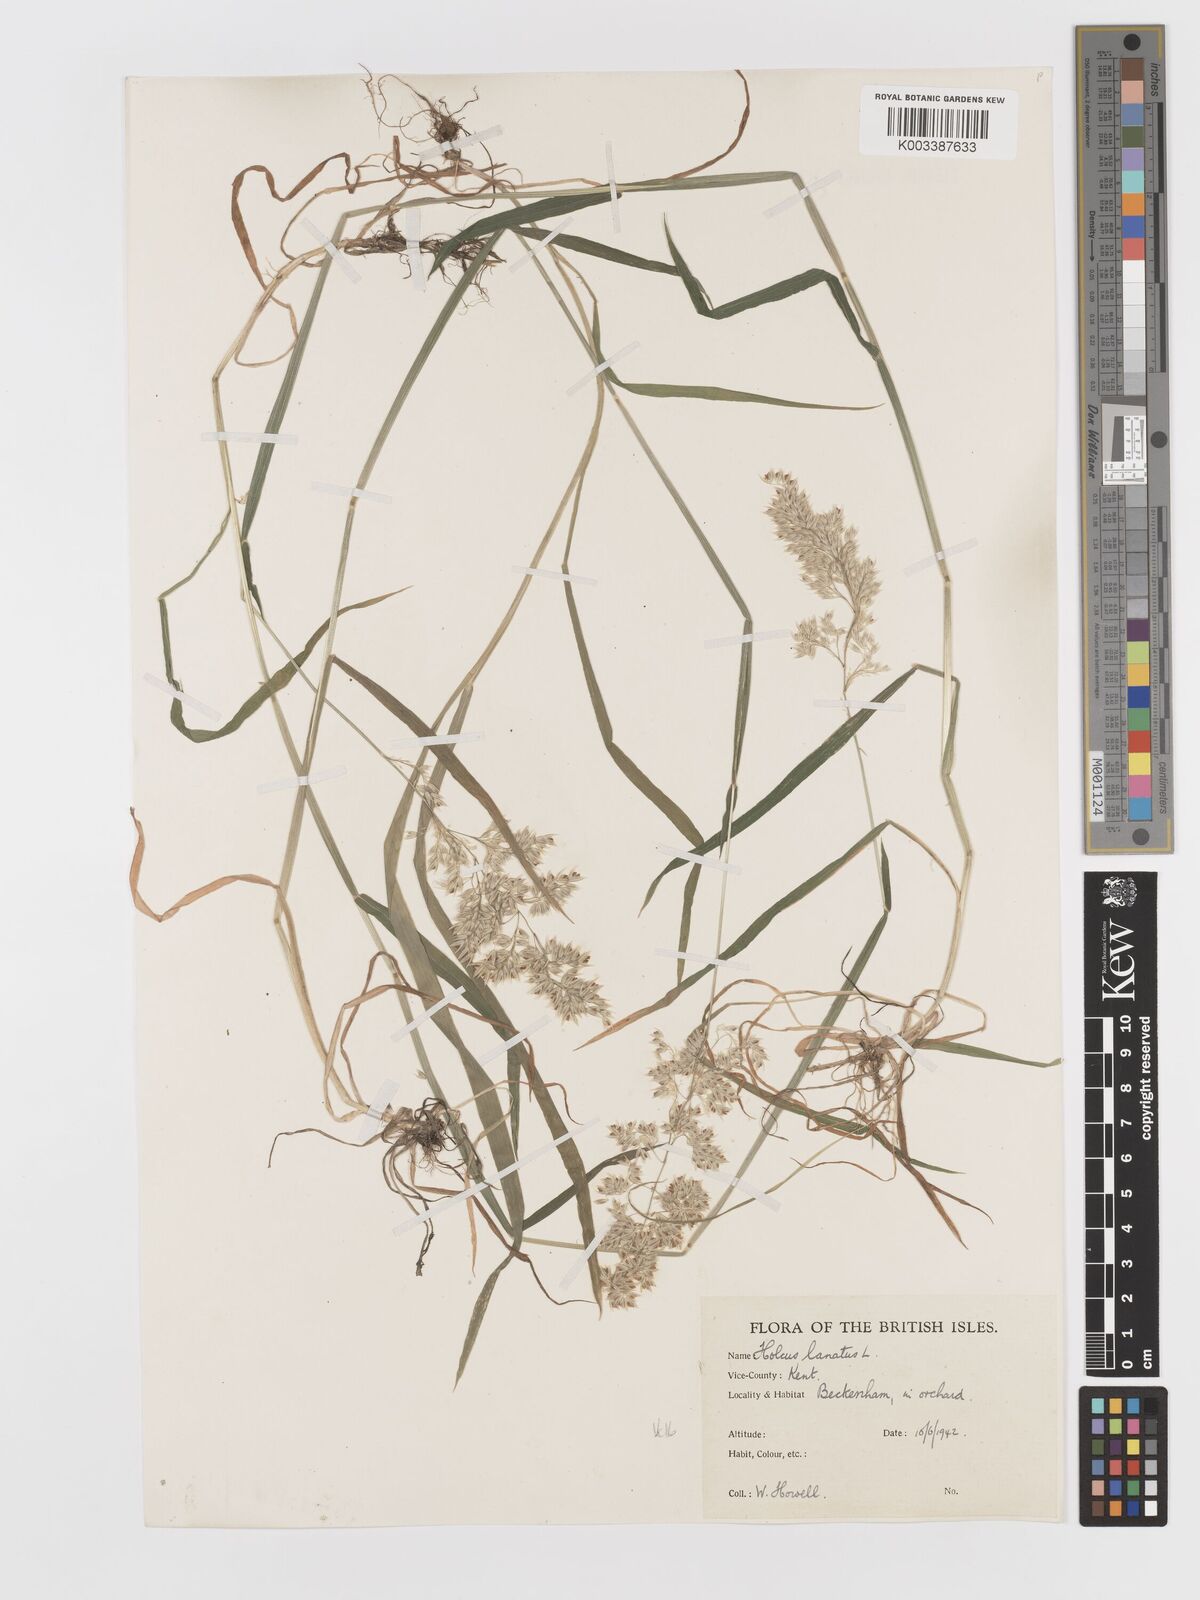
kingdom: Plantae
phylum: Tracheophyta
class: Liliopsida
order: Poales
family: Poaceae
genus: Holcus
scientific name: Holcus lanatus
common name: Yorkshire-fog
